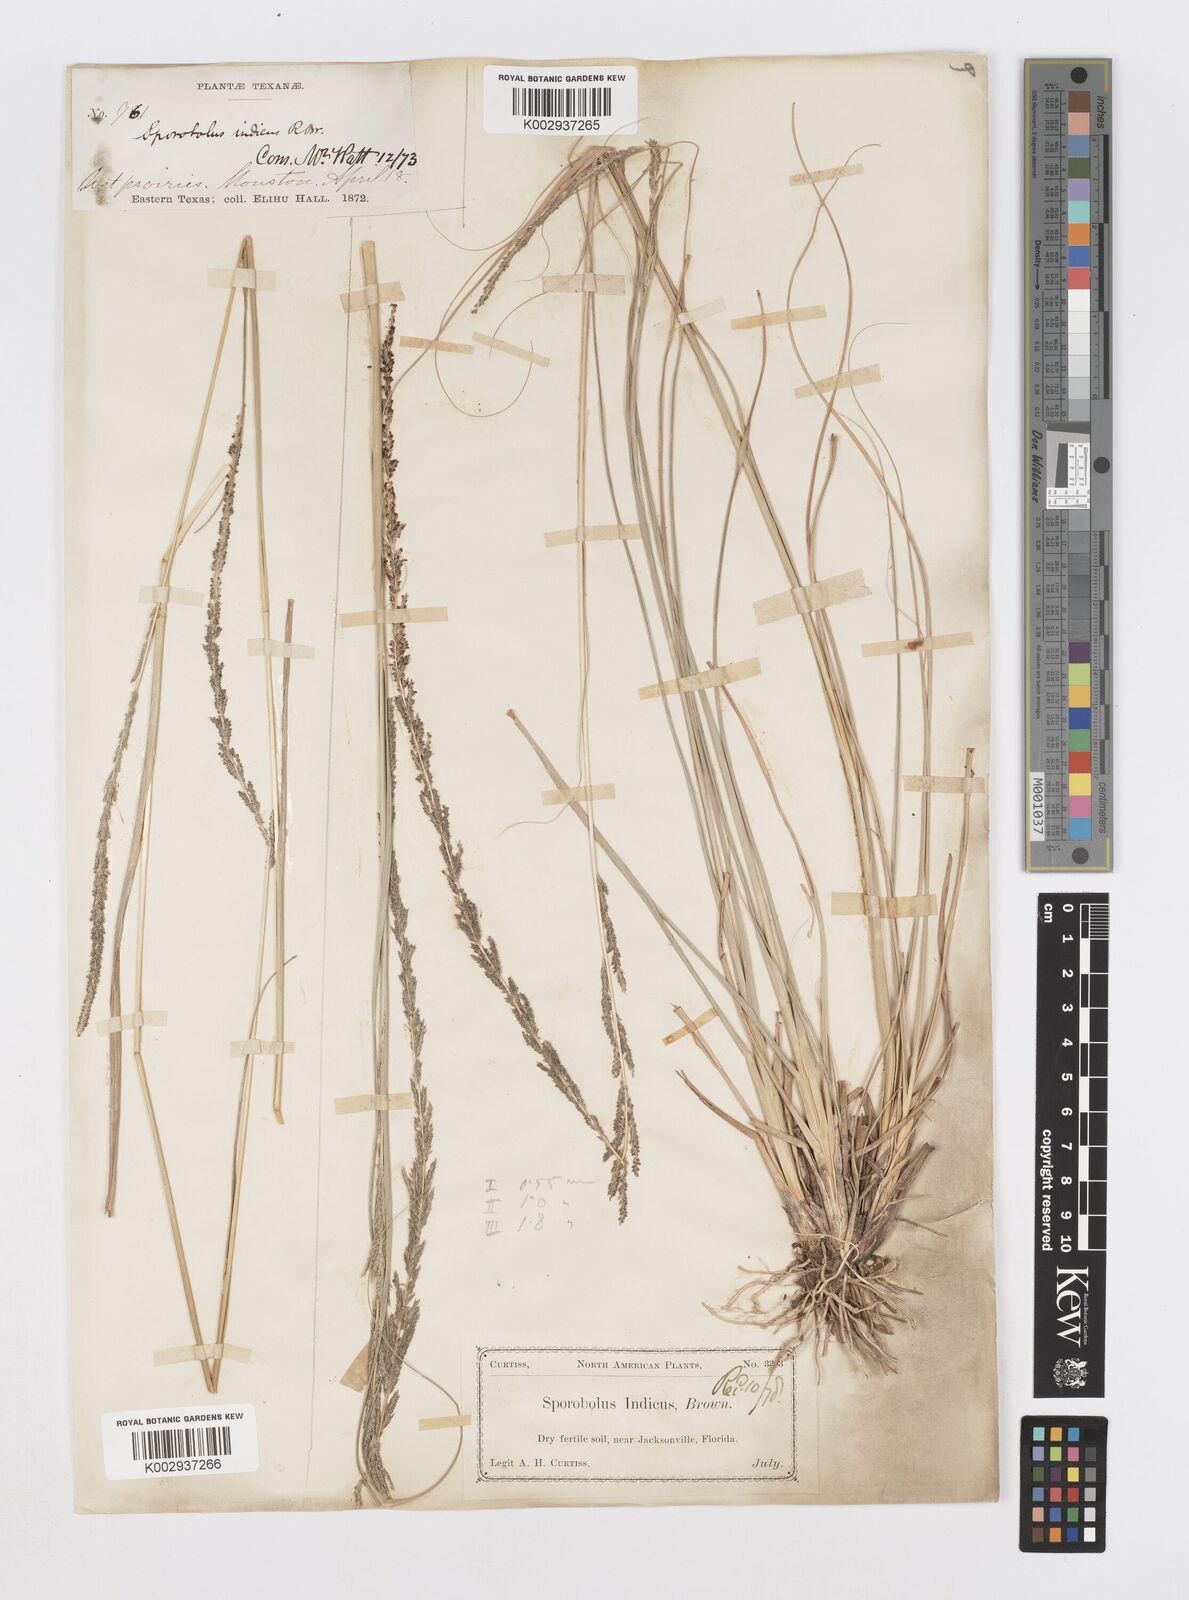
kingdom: Plantae
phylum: Tracheophyta
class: Liliopsida
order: Poales
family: Poaceae
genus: Sporobolus
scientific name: Sporobolus indicus
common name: Smut grass
